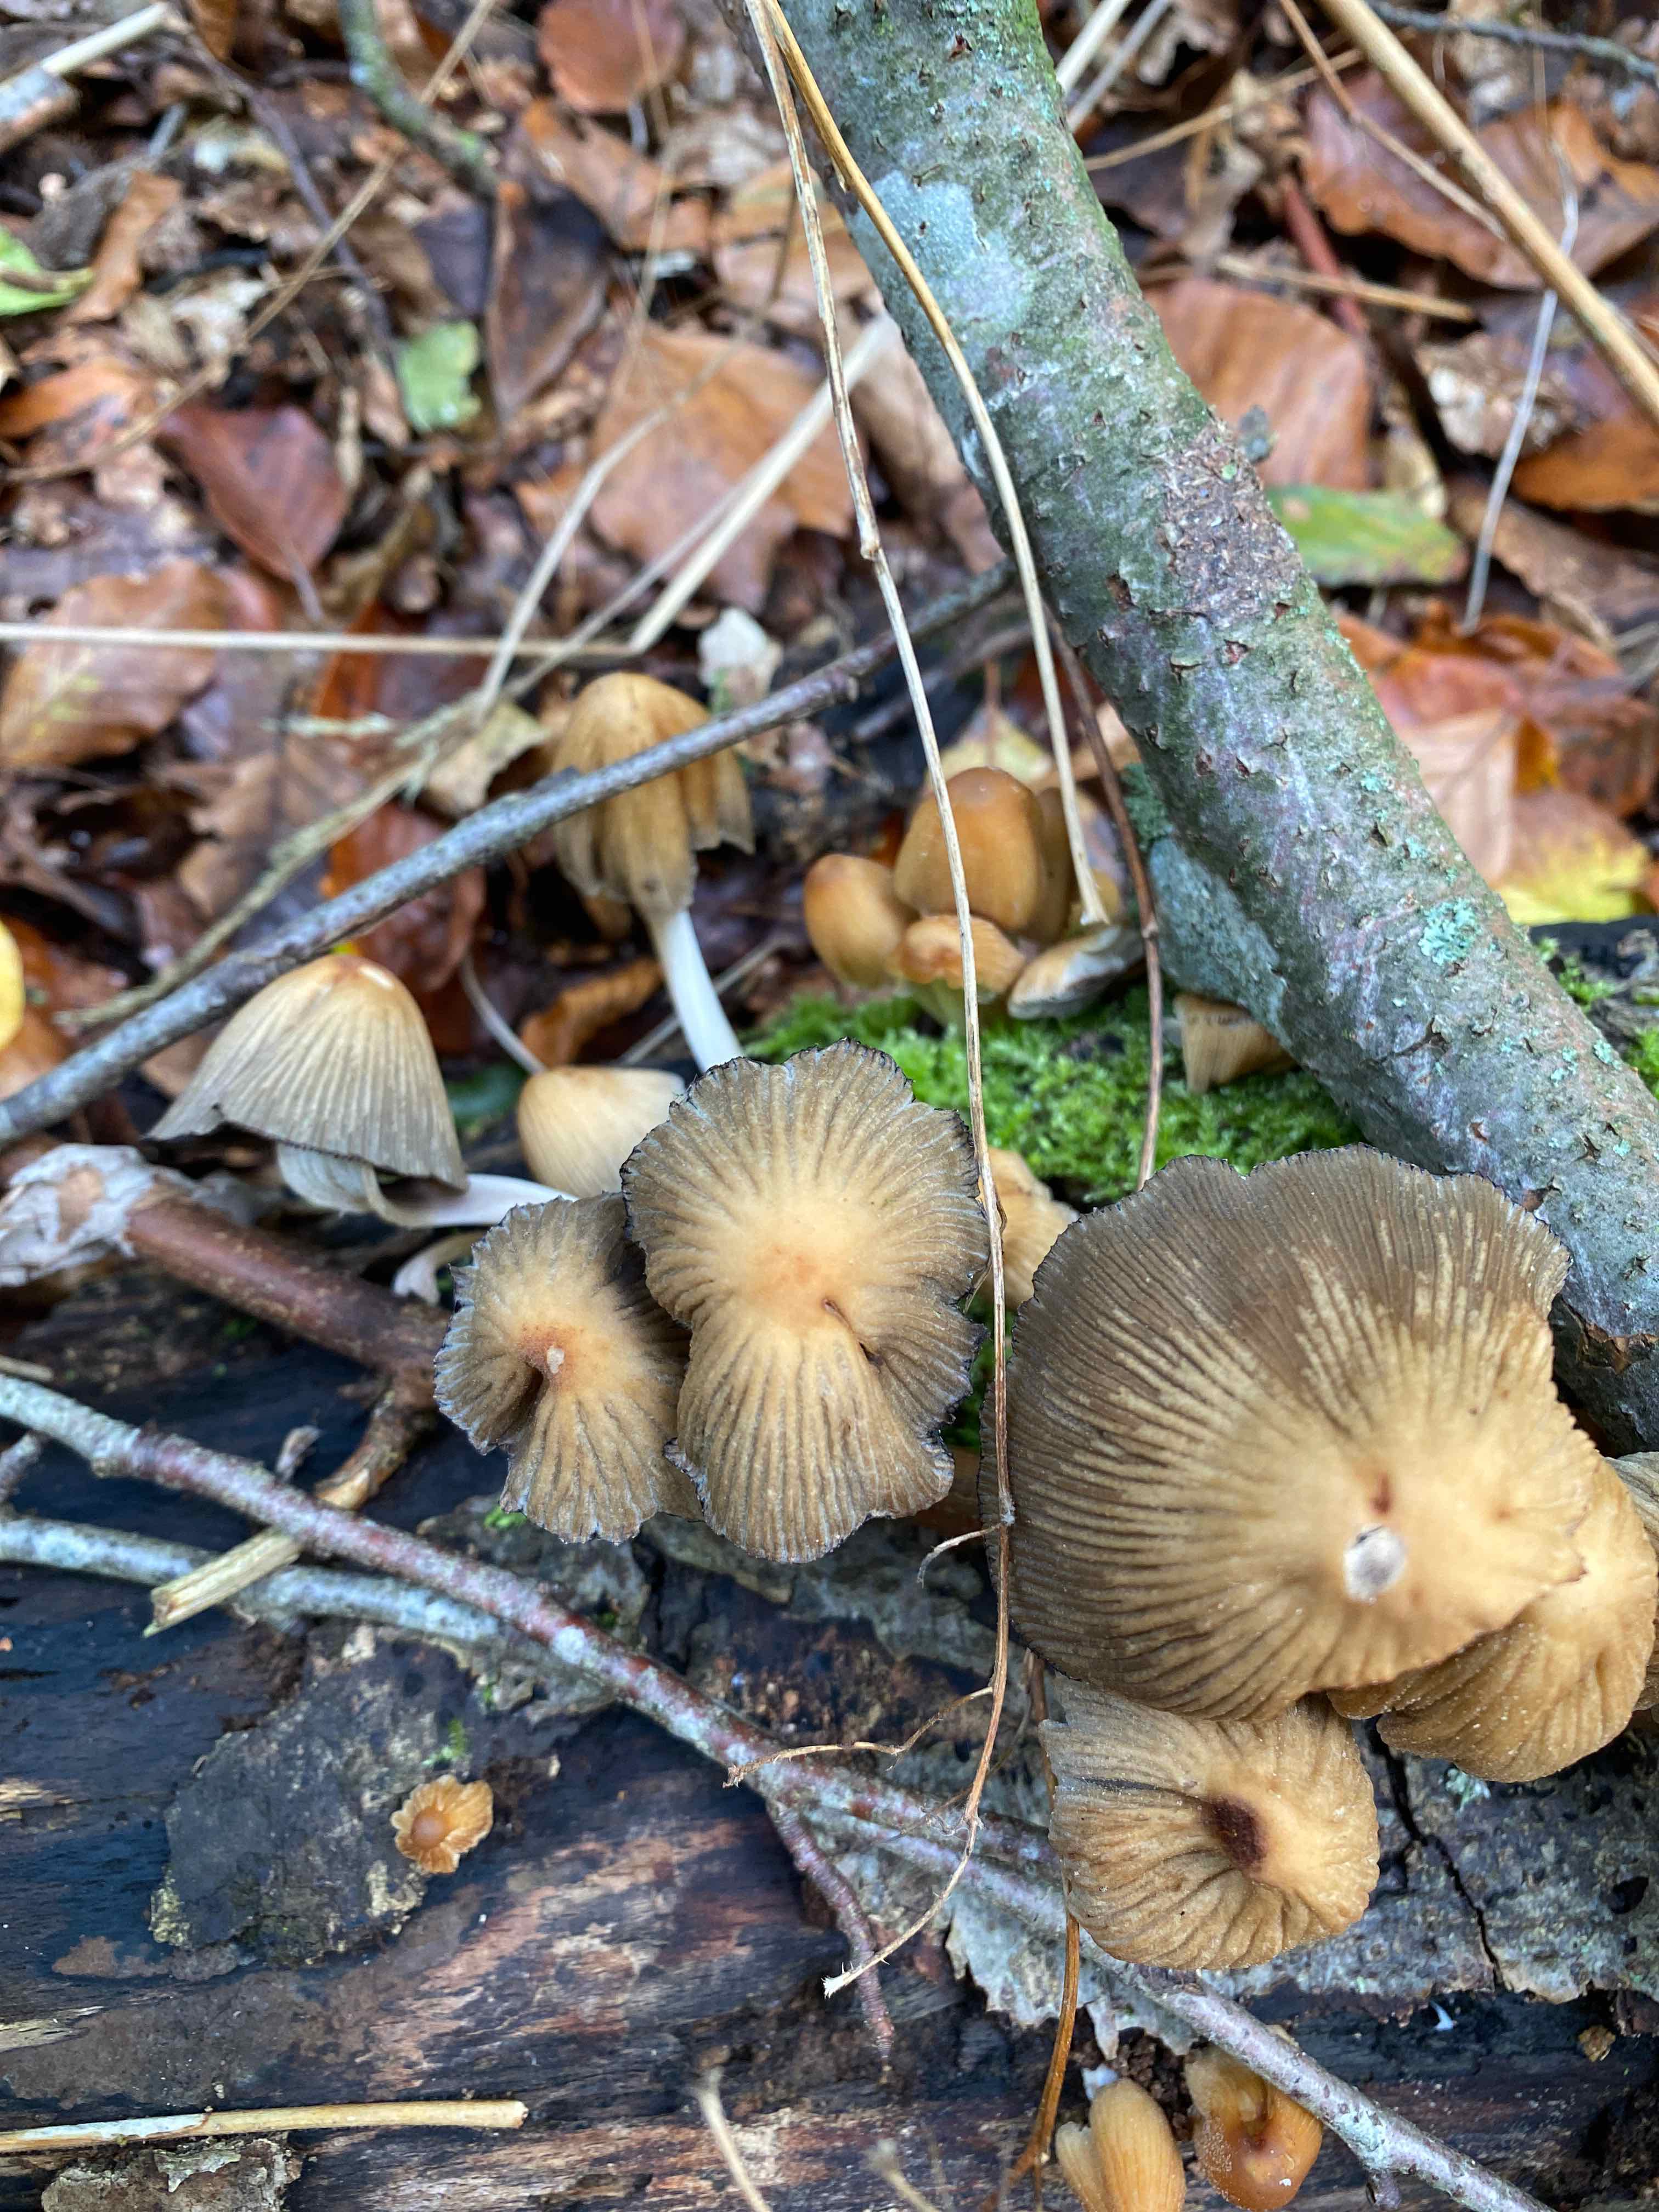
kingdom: Fungi
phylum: Basidiomycota
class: Agaricomycetes
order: Agaricales
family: Psathyrellaceae
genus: Coprinellus
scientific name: Coprinellus micaceus
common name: glimmer-blækhat
